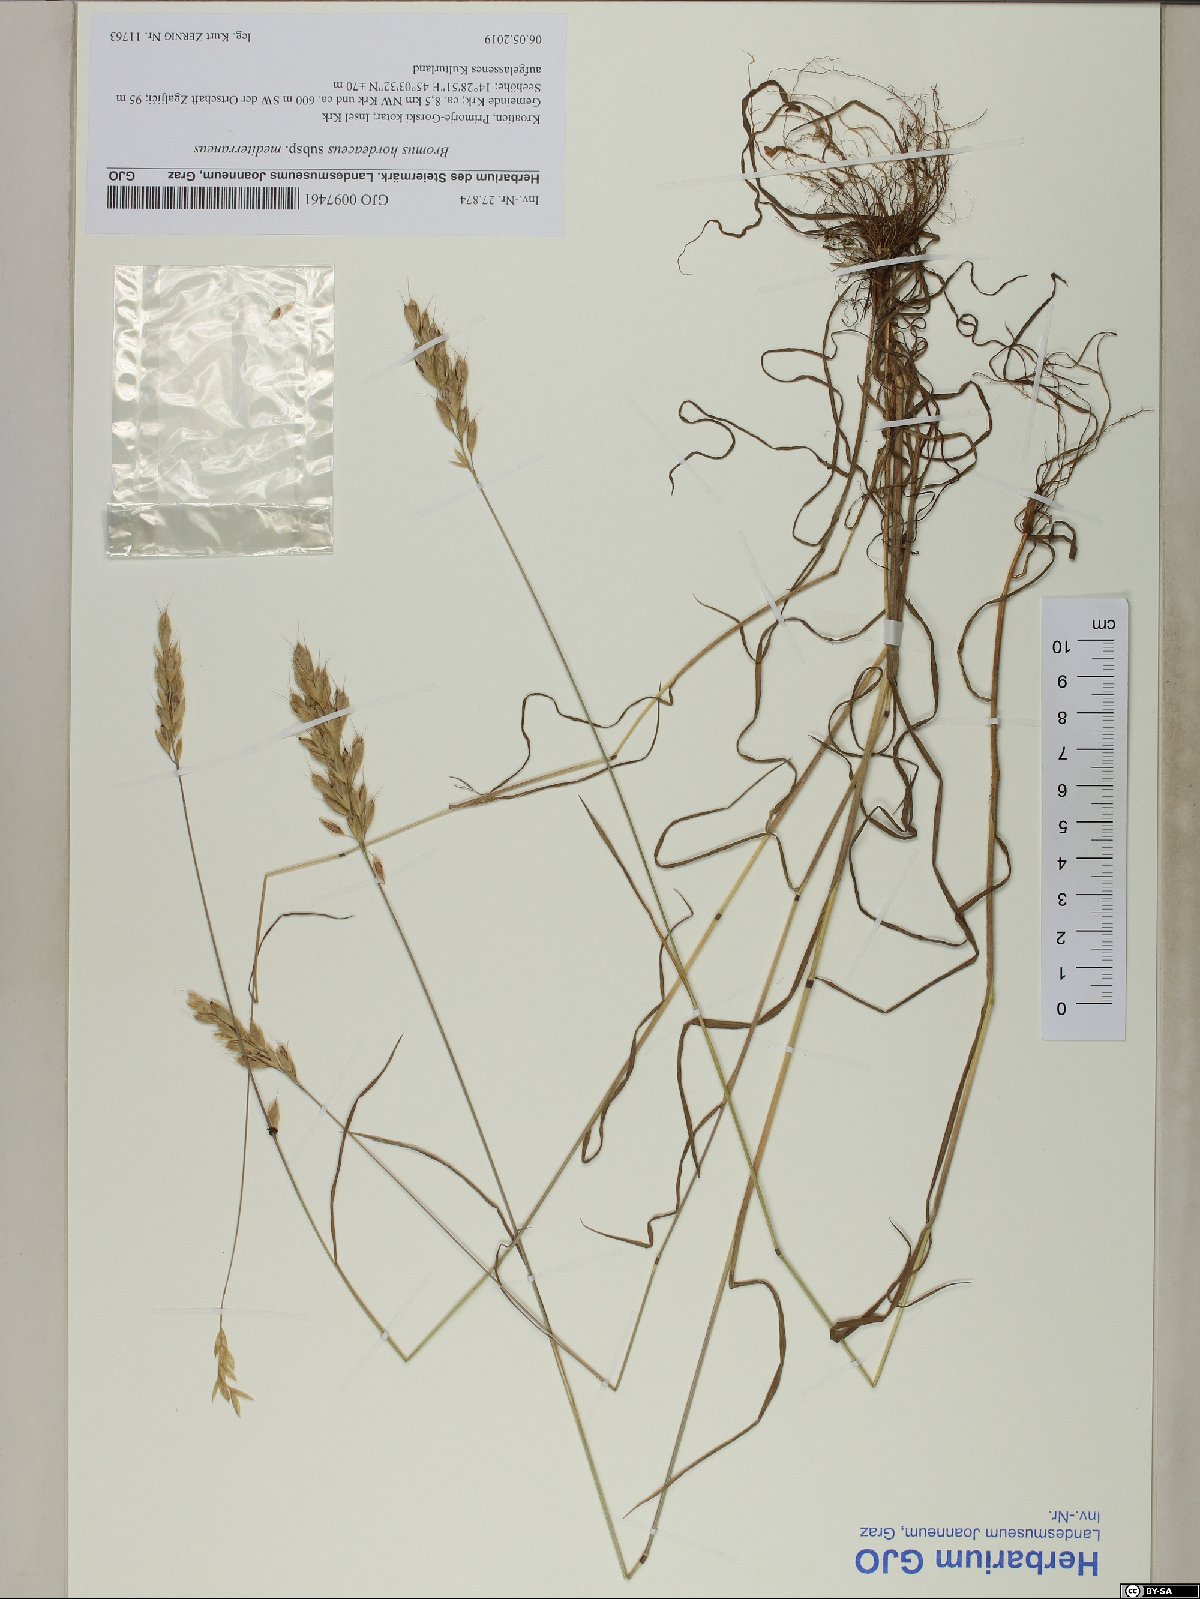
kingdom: Plantae
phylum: Tracheophyta
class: Liliopsida
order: Poales
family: Poaceae
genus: Bromus
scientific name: Bromus hordeaceus
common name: Soft brome
